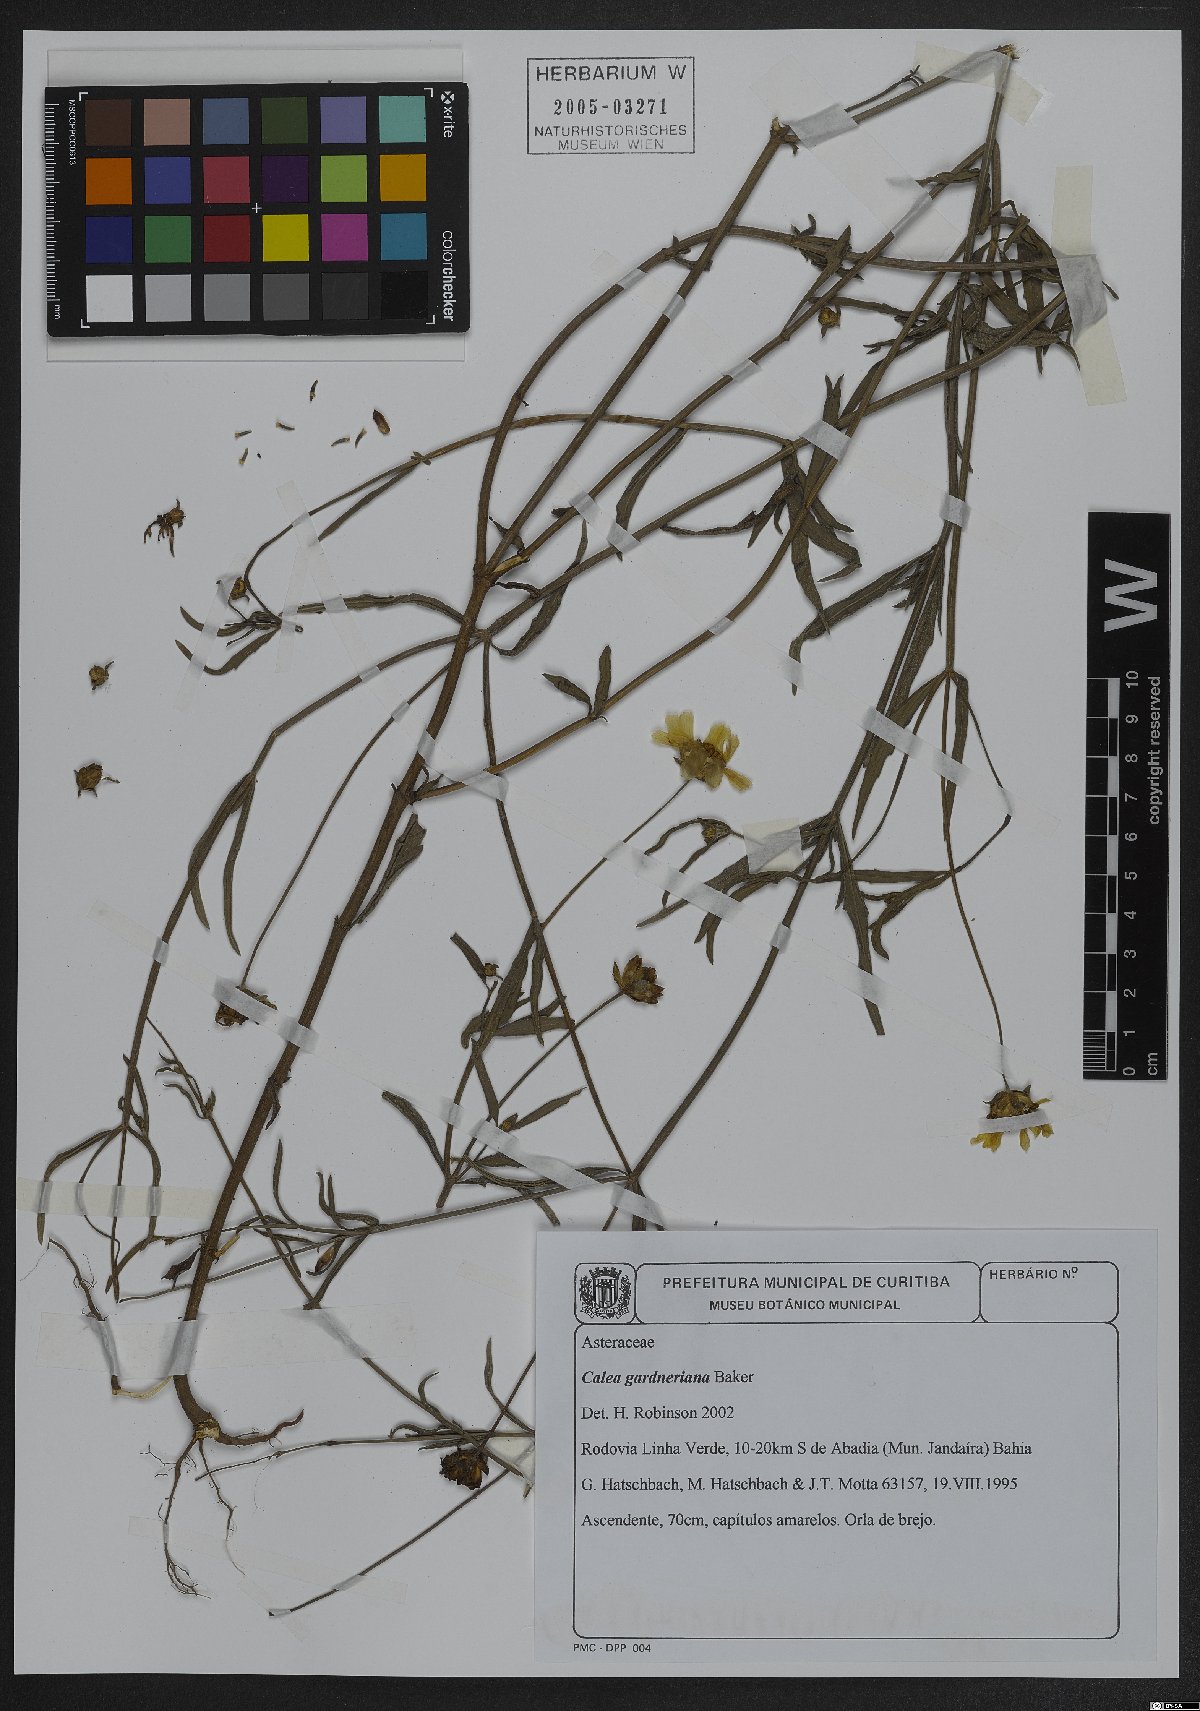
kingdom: Plantae
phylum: Tracheophyta
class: Magnoliopsida
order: Asterales
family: Asteraceae
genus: Calea
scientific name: Calea gardneriana
